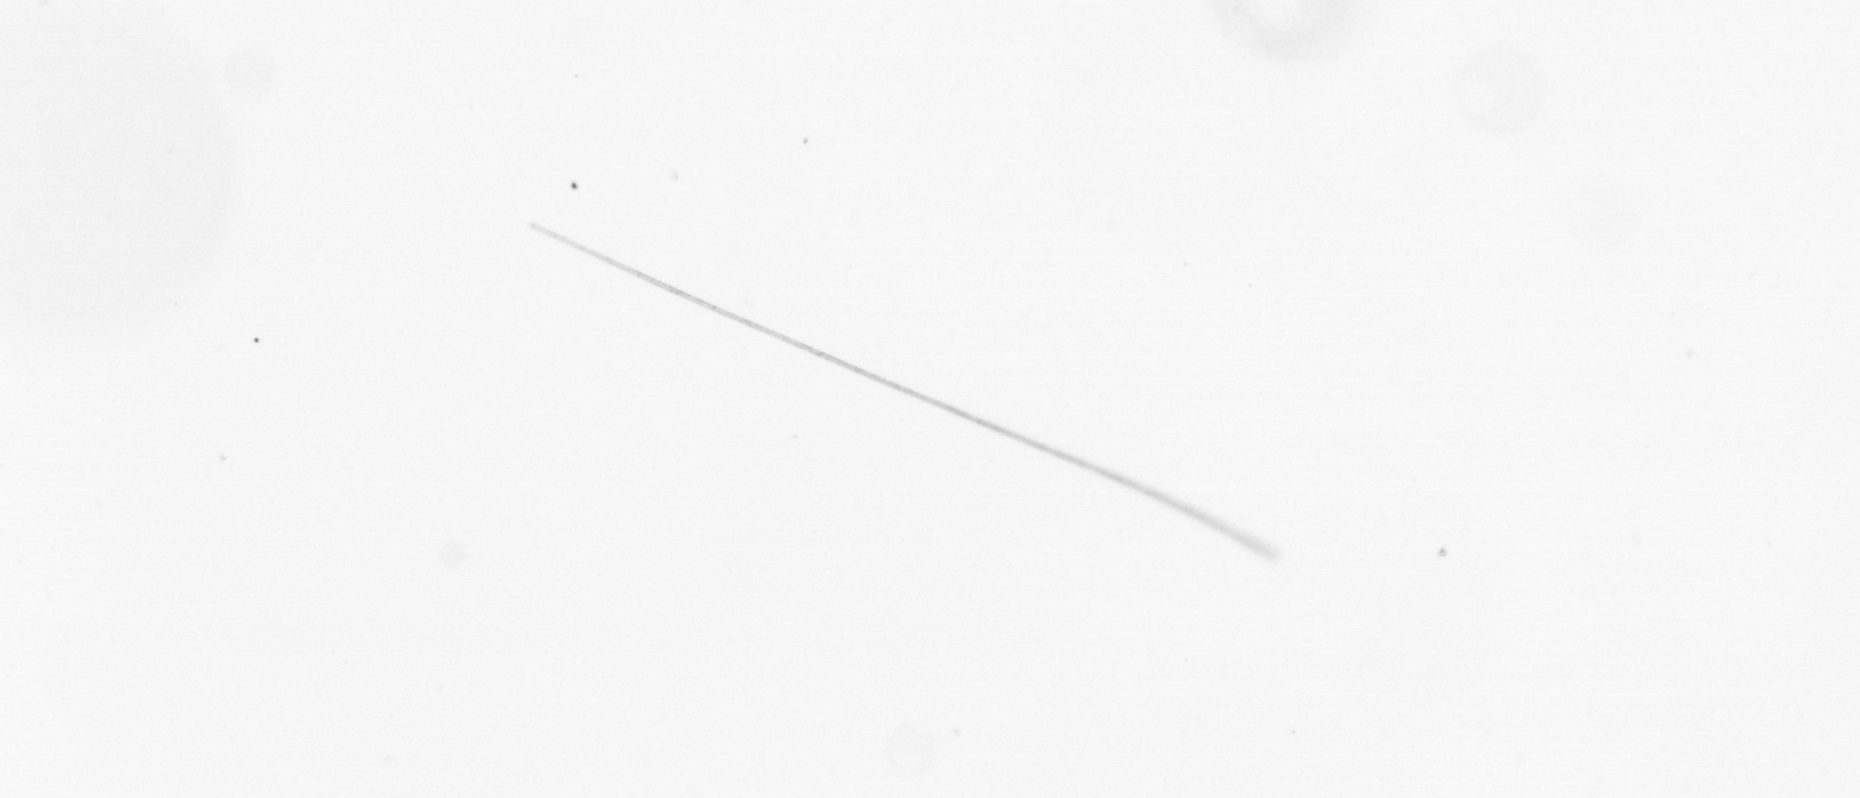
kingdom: Chromista
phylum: Ochrophyta
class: Bacillariophyceae
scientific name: Bacillariophyceae
